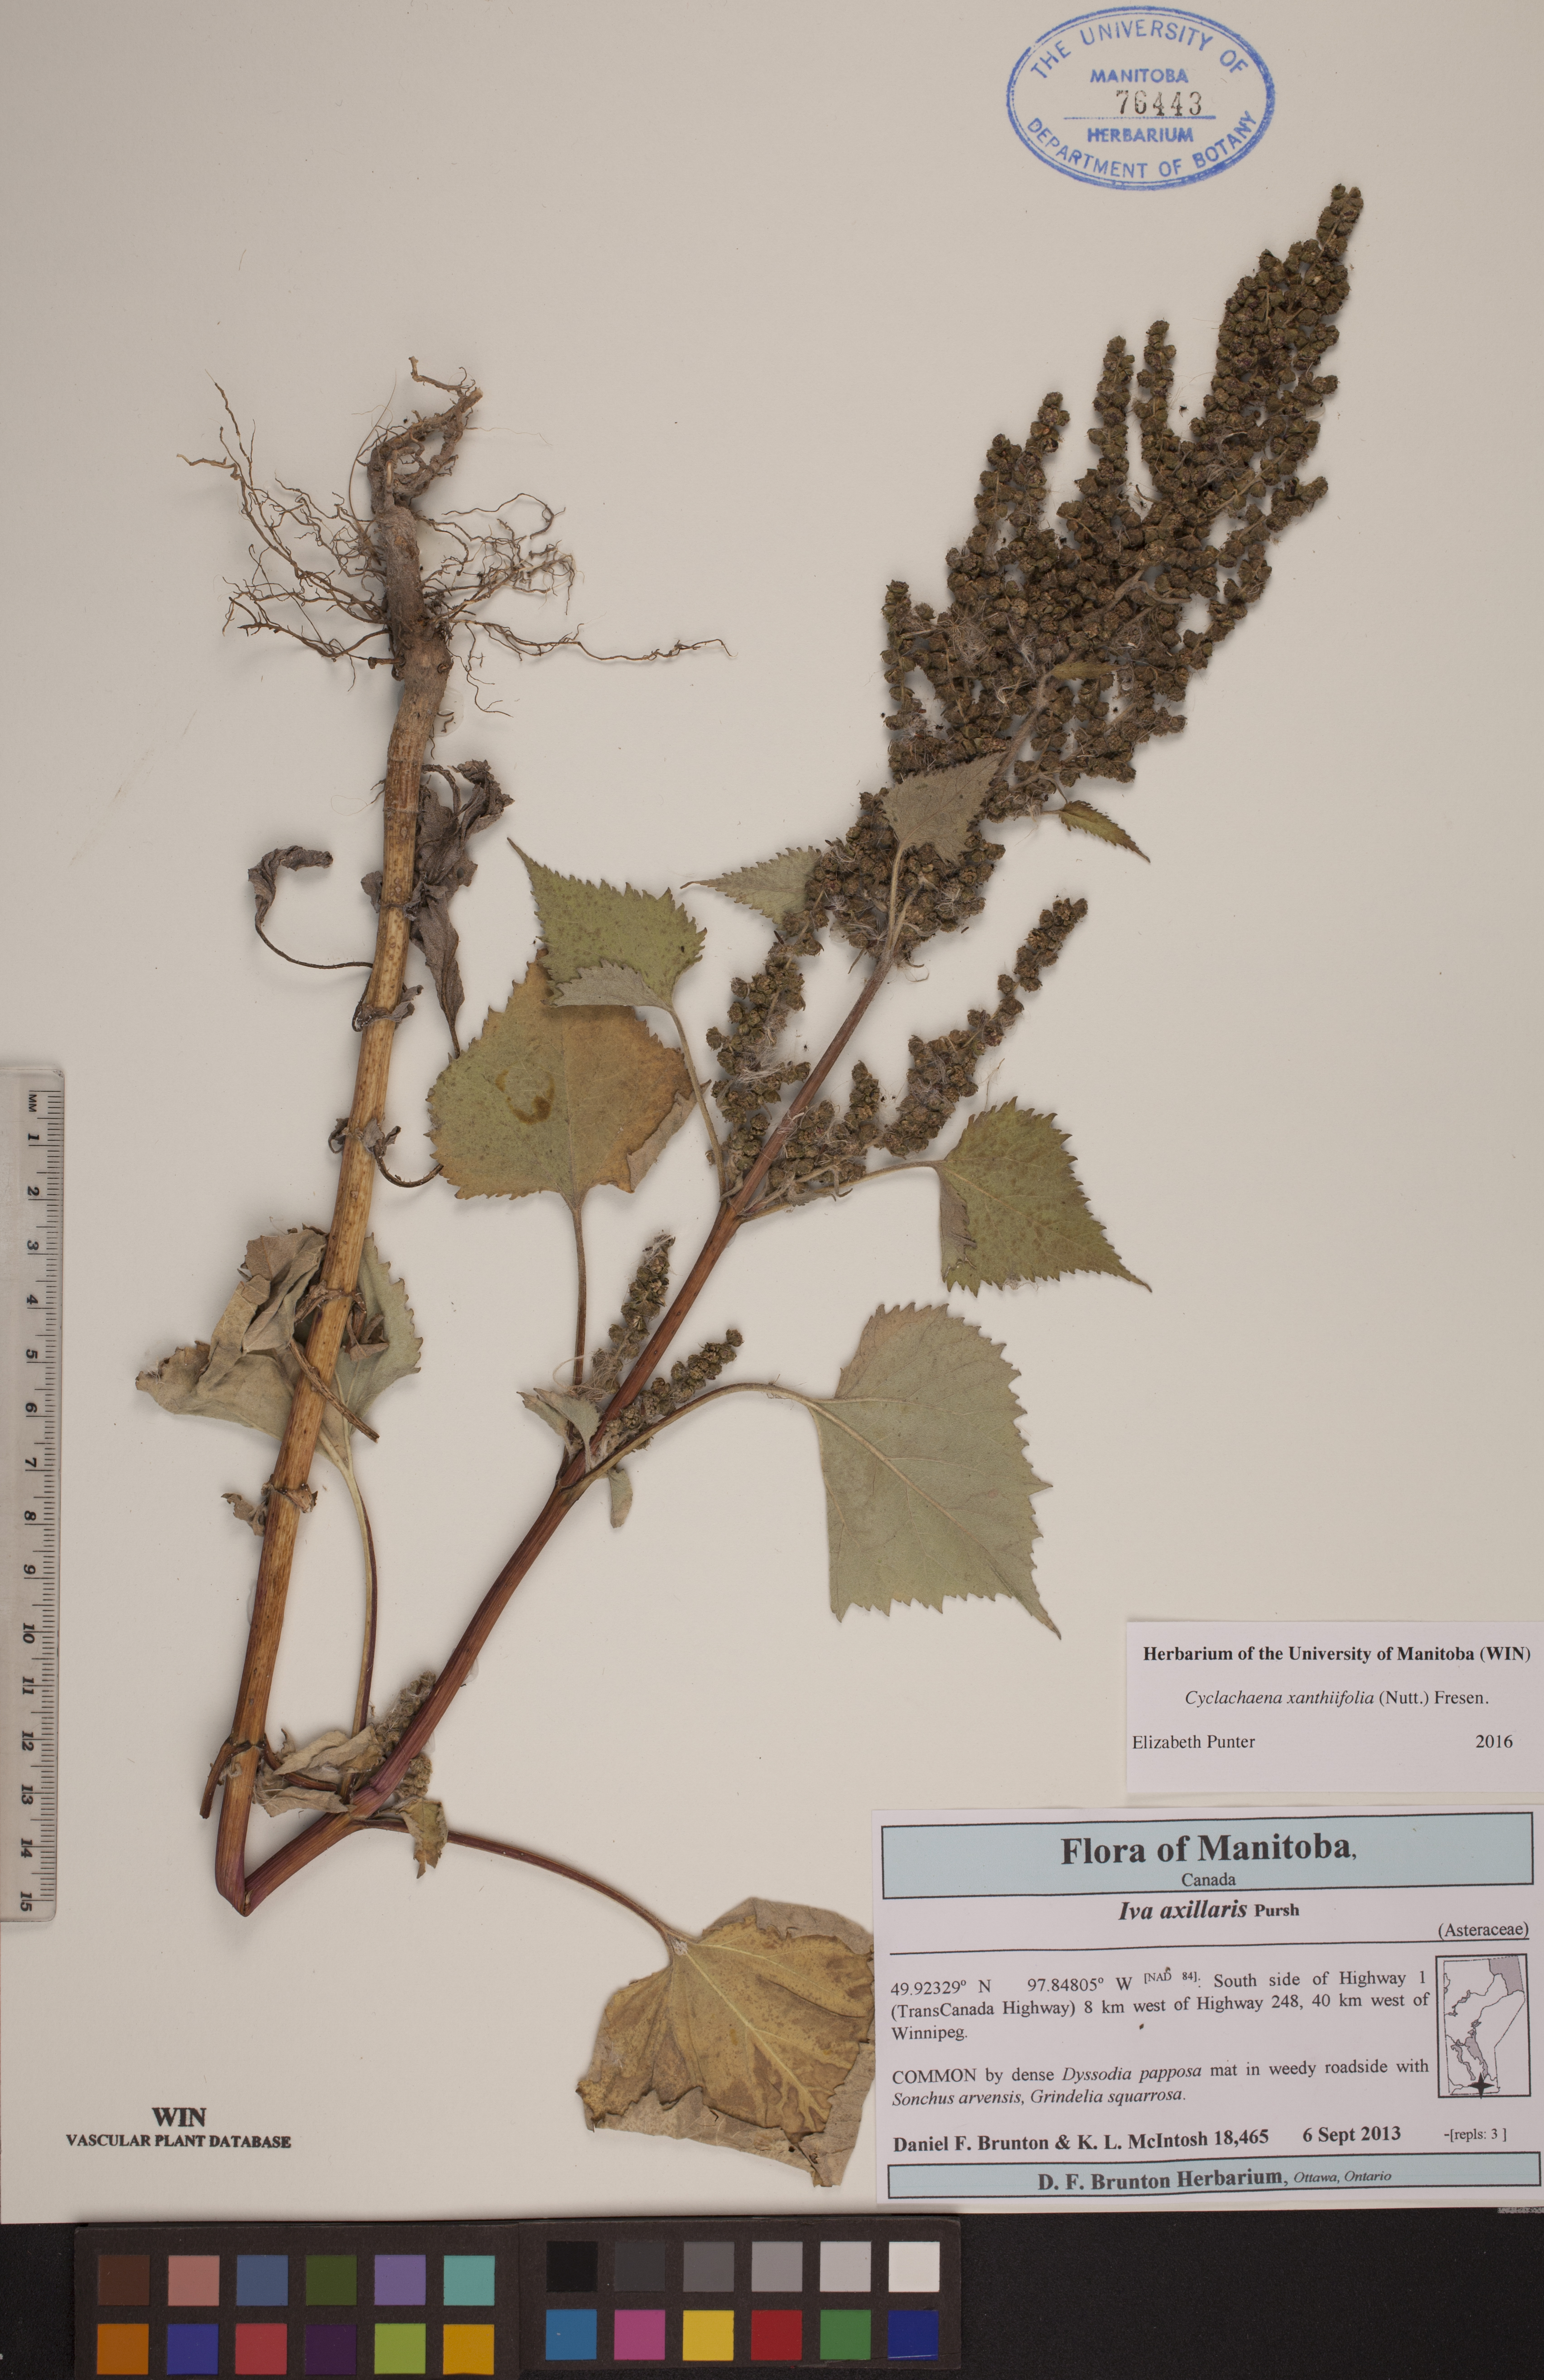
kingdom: Plantae
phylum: Tracheophyta
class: Magnoliopsida
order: Asterales
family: Asteraceae
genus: Cyclachaena
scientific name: Cyclachaena xanthiifolia
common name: Giant sumpweed
